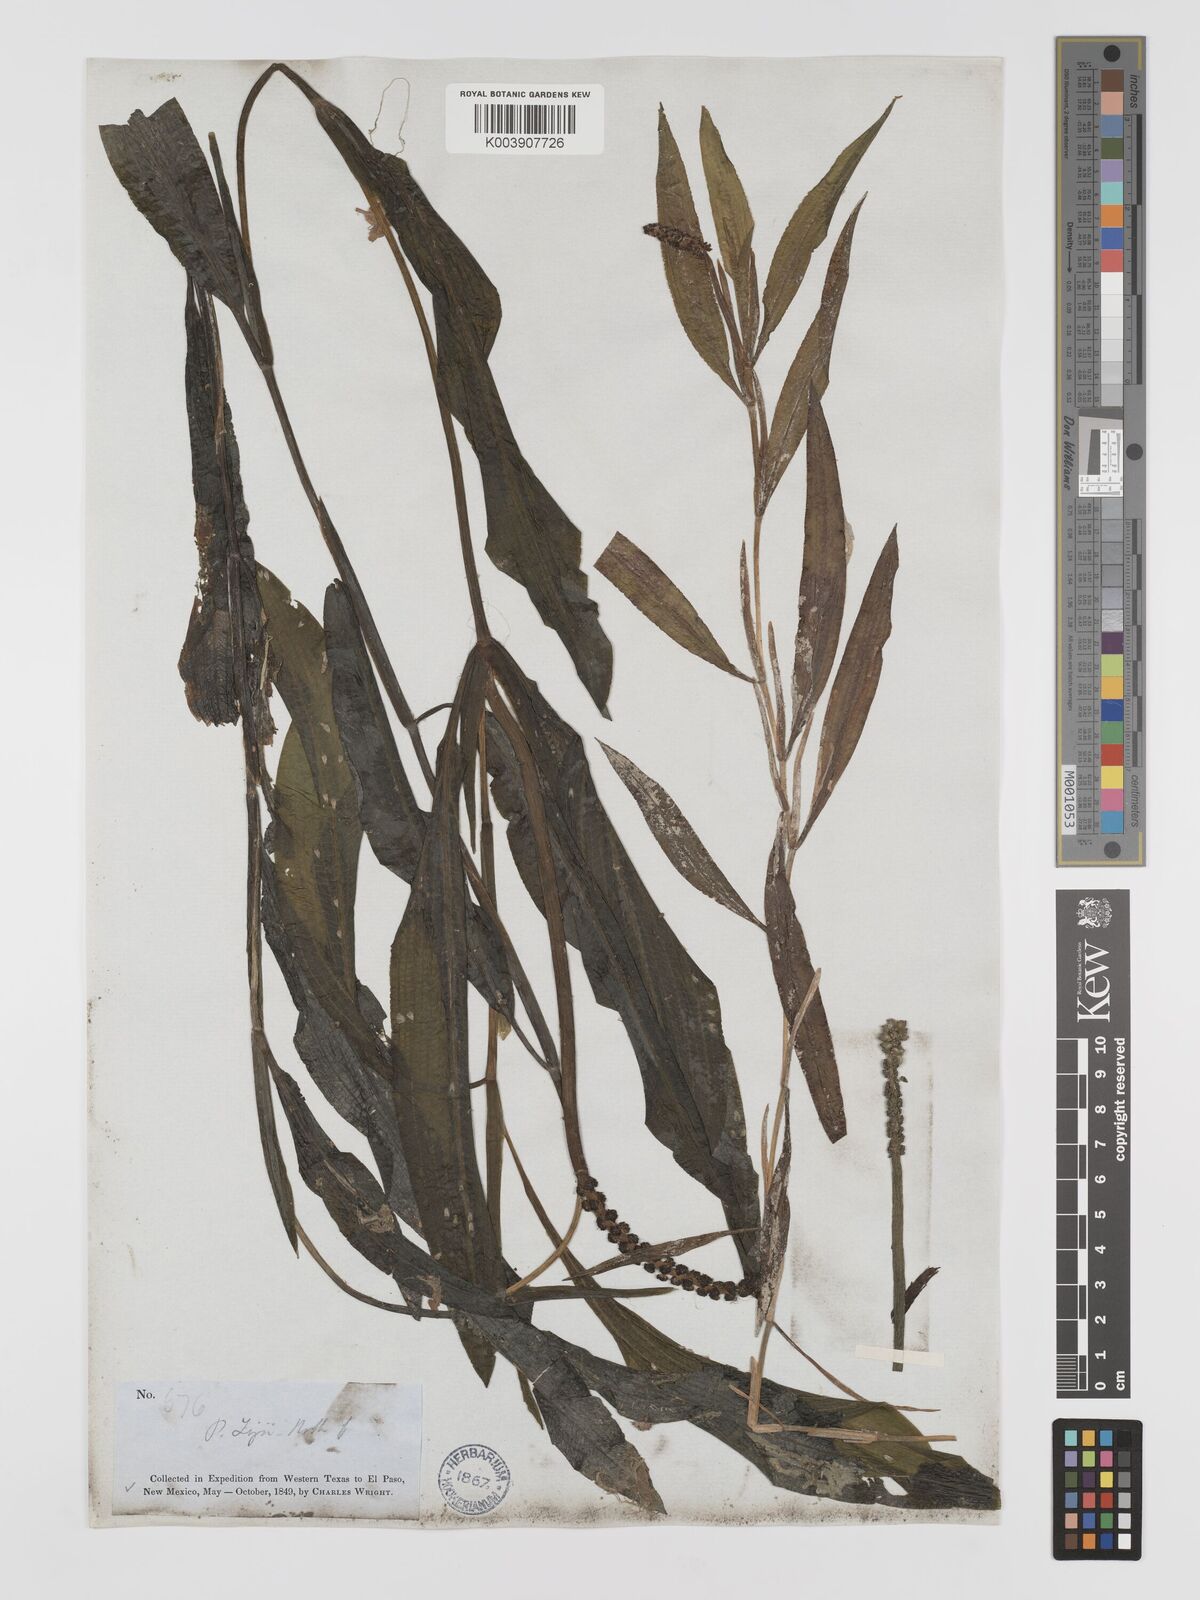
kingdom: Plantae
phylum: Tracheophyta
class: Liliopsida
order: Alismatales
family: Potamogetonaceae
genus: Potamogeton
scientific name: Potamogeton lucens
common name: Shining pondweed
